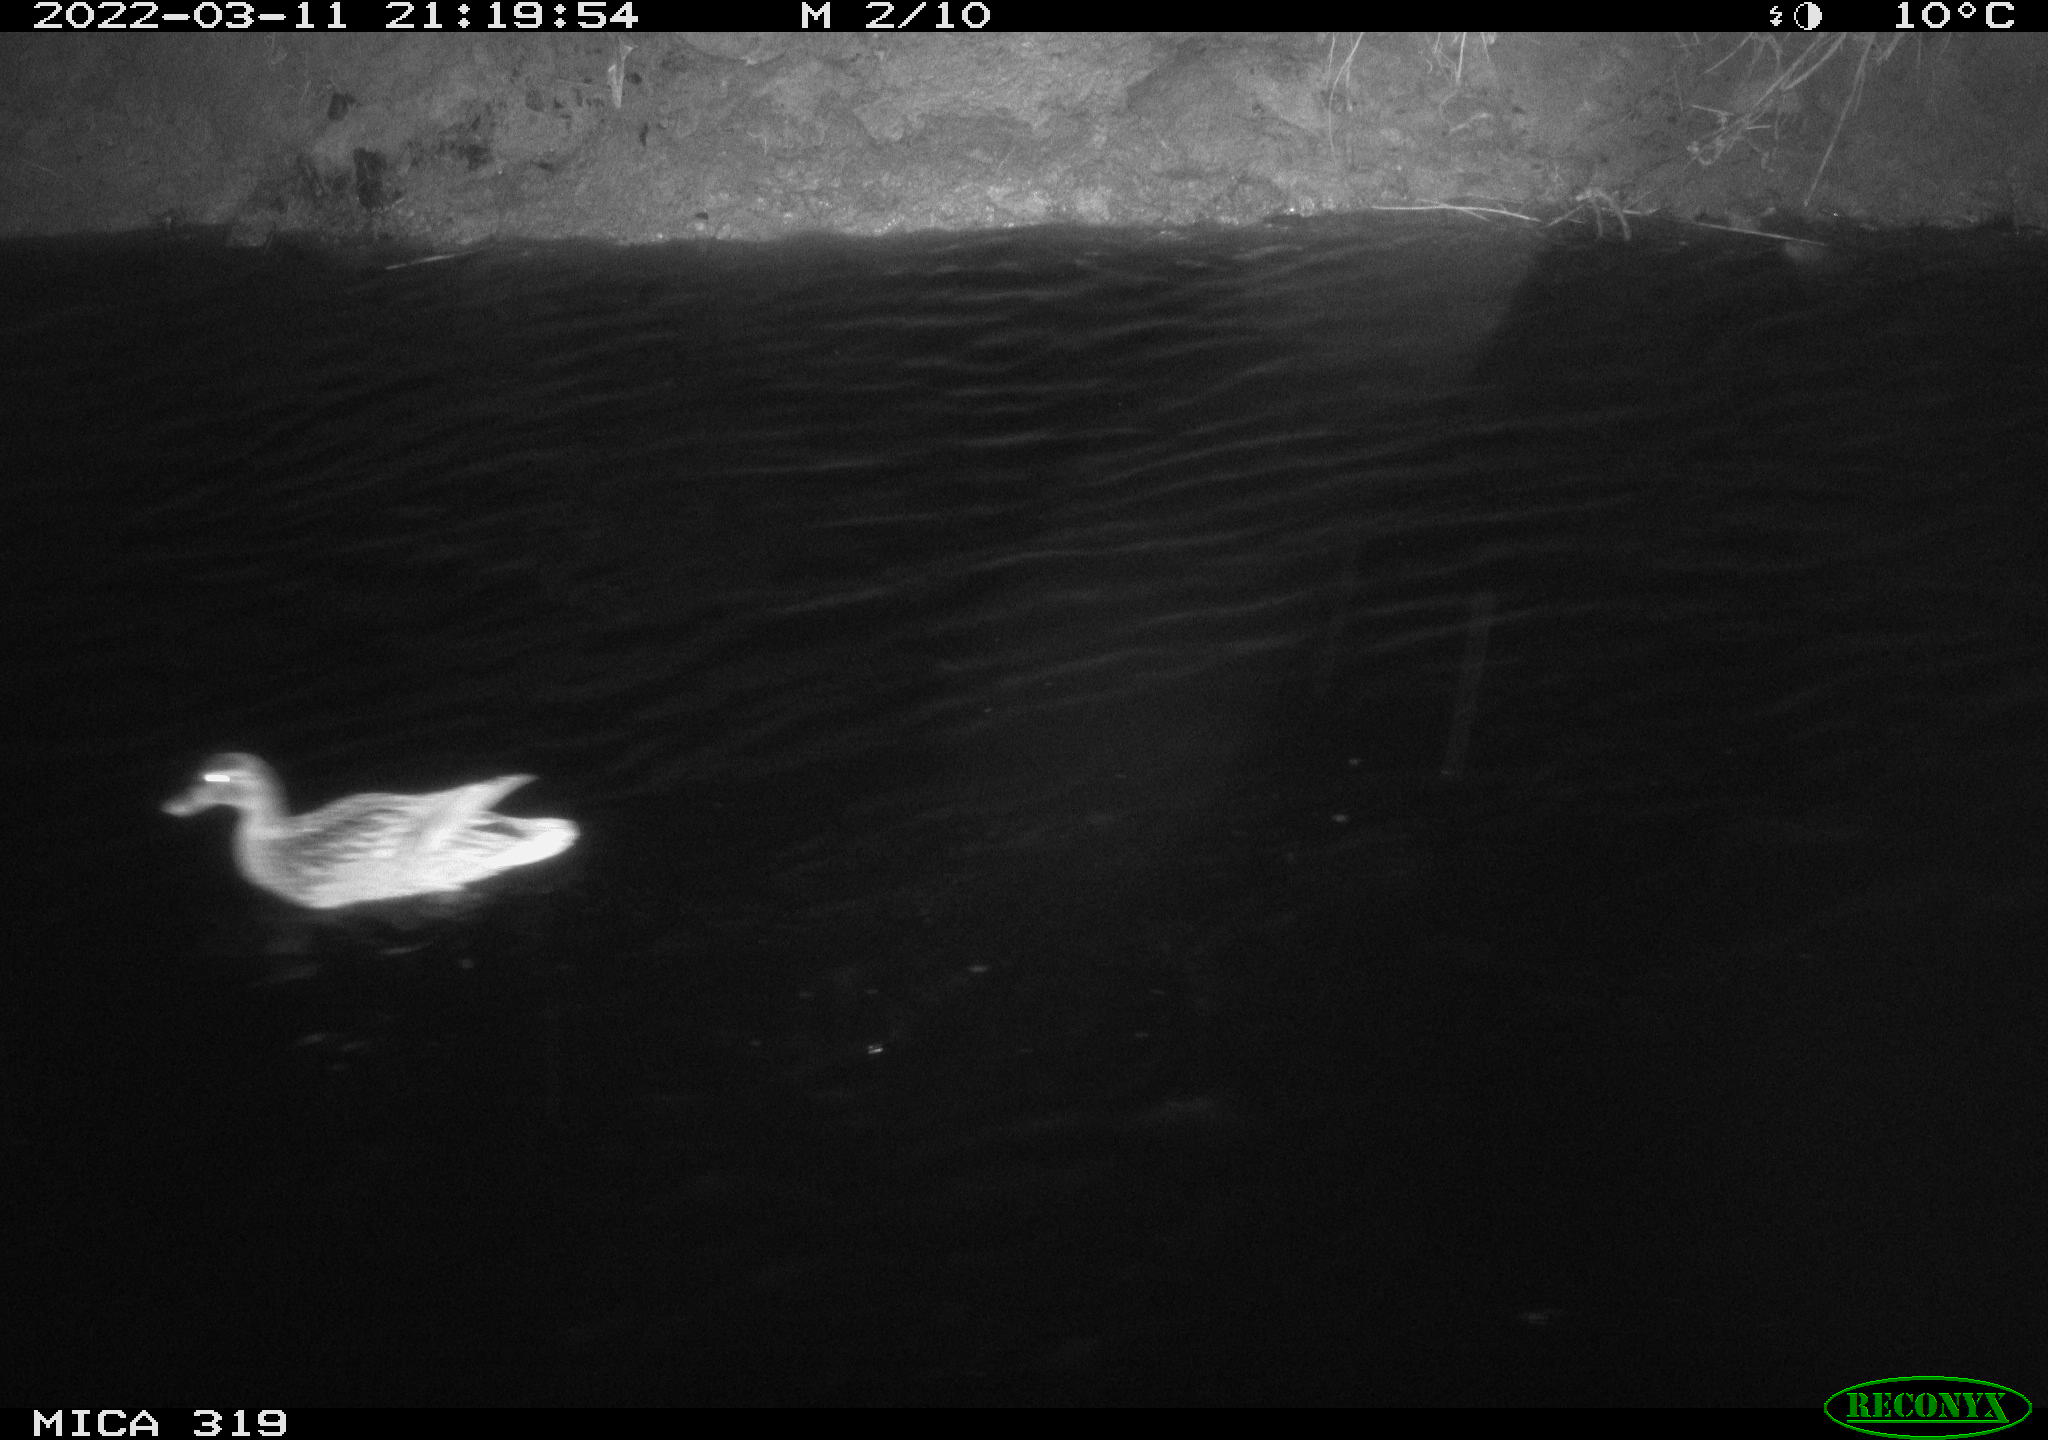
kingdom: Animalia
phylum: Chordata
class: Aves
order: Anseriformes
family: Anatidae
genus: Anas
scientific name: Anas platyrhynchos
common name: Mallard
